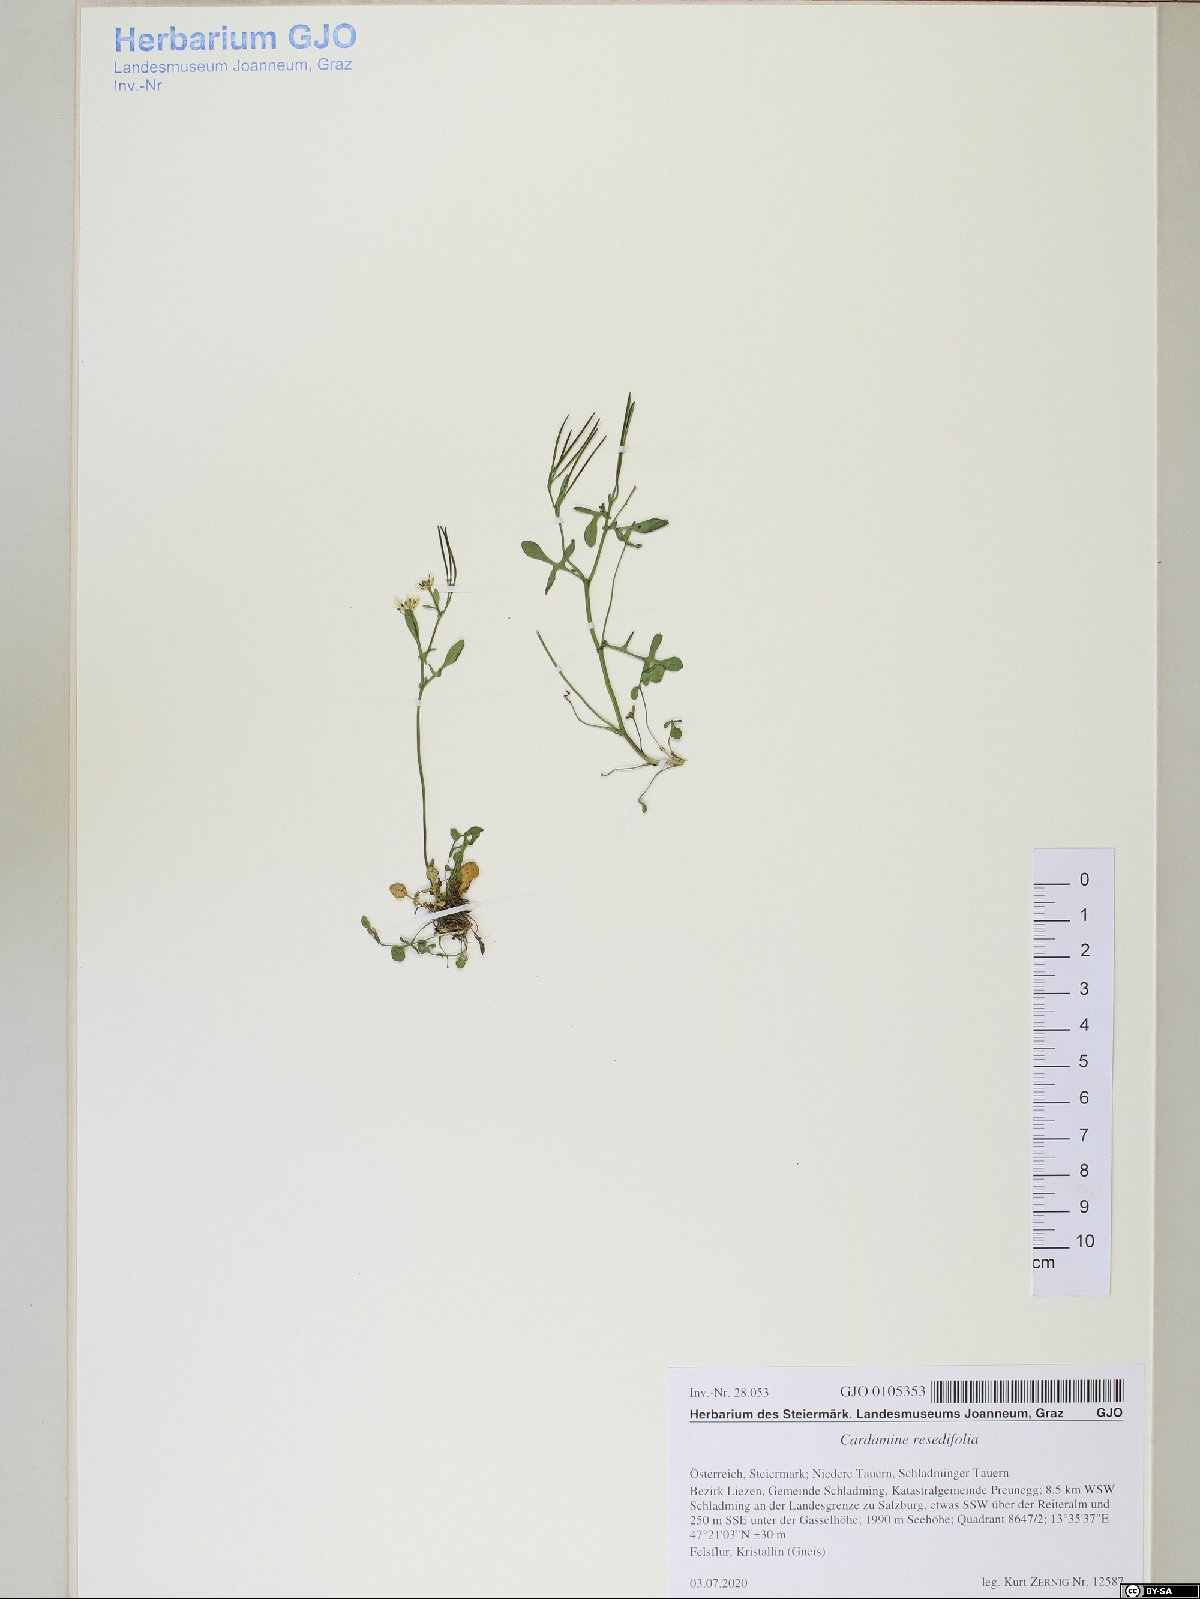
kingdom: Plantae
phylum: Tracheophyta
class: Magnoliopsida
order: Brassicales
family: Brassicaceae
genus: Cardamine
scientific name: Cardamine resedifolia
